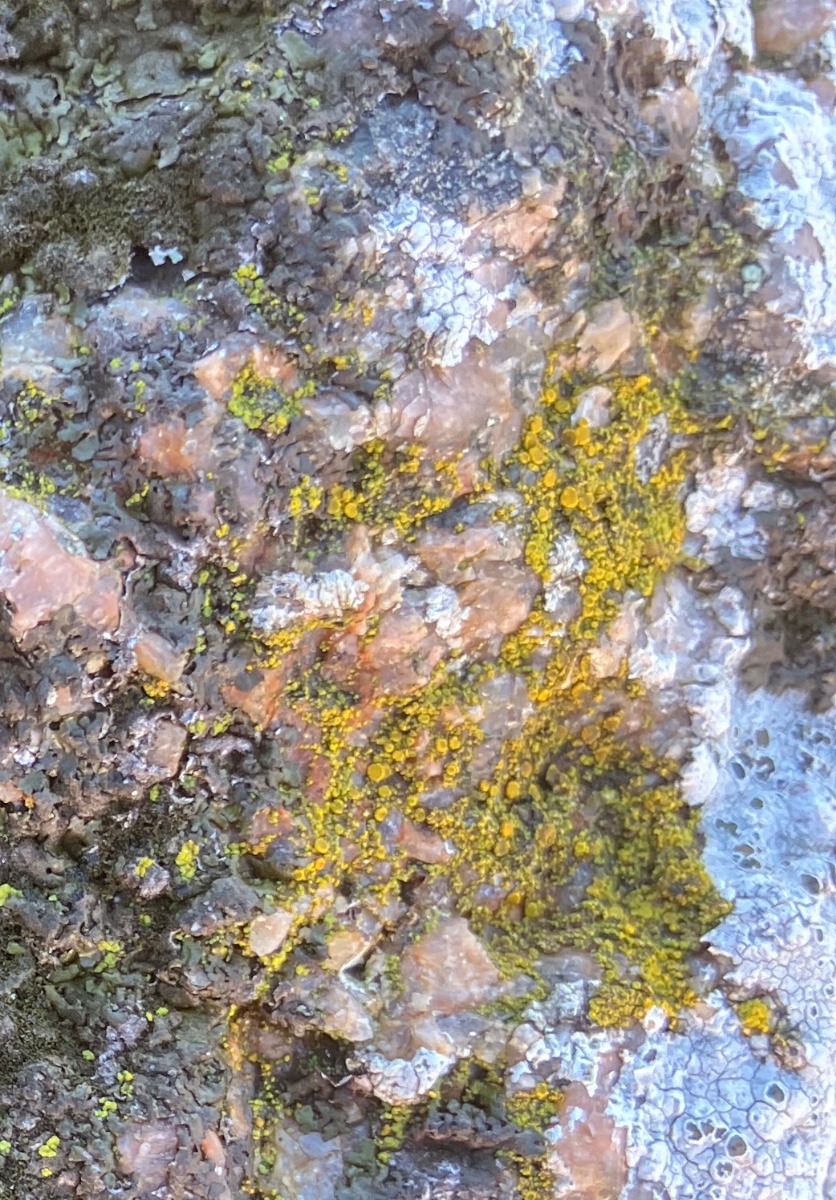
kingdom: Fungi
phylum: Ascomycota
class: Candelariomycetes
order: Candelariales
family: Candelariaceae
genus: Candelariella
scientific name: Candelariella vitellina
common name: almindelig æggeblommelav
